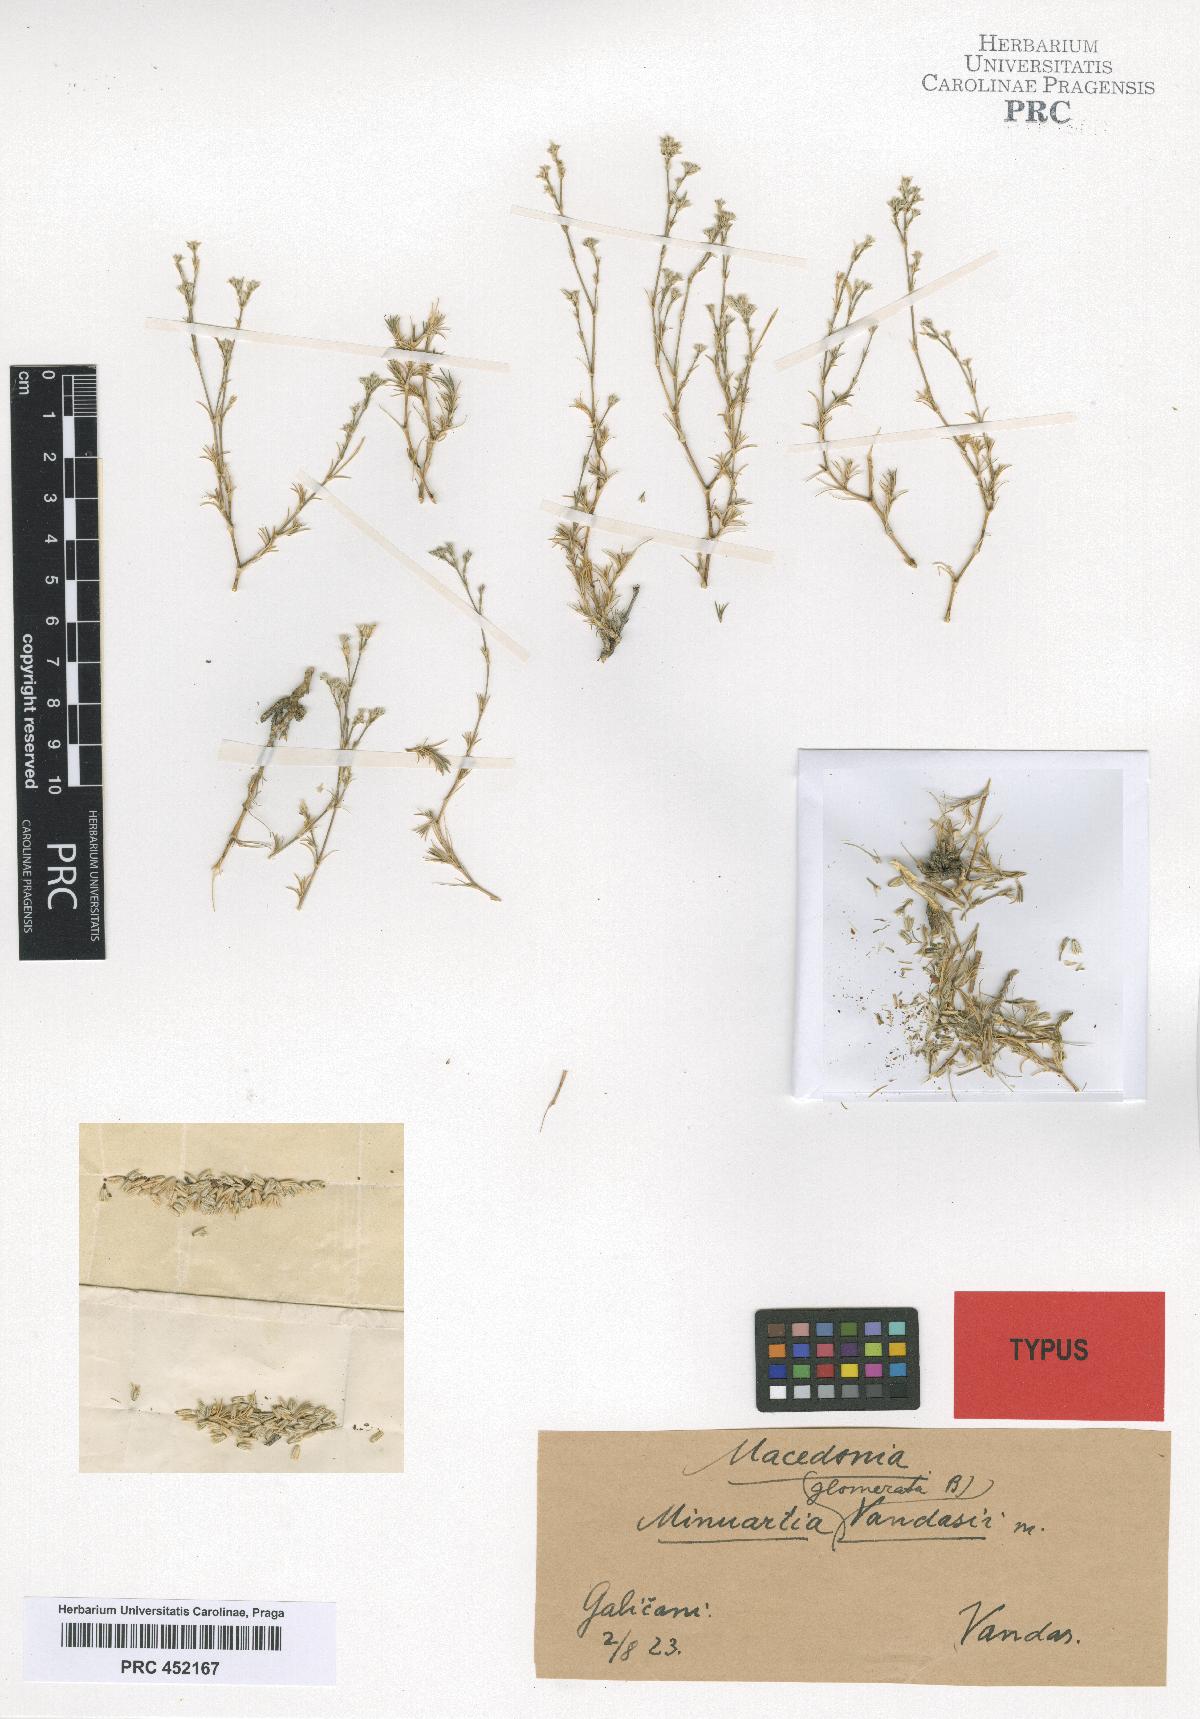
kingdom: Plantae
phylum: Tracheophyta
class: Magnoliopsida
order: Caryophyllales
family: Caryophyllaceae
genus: Minuartia
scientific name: Minuartia glomerata
